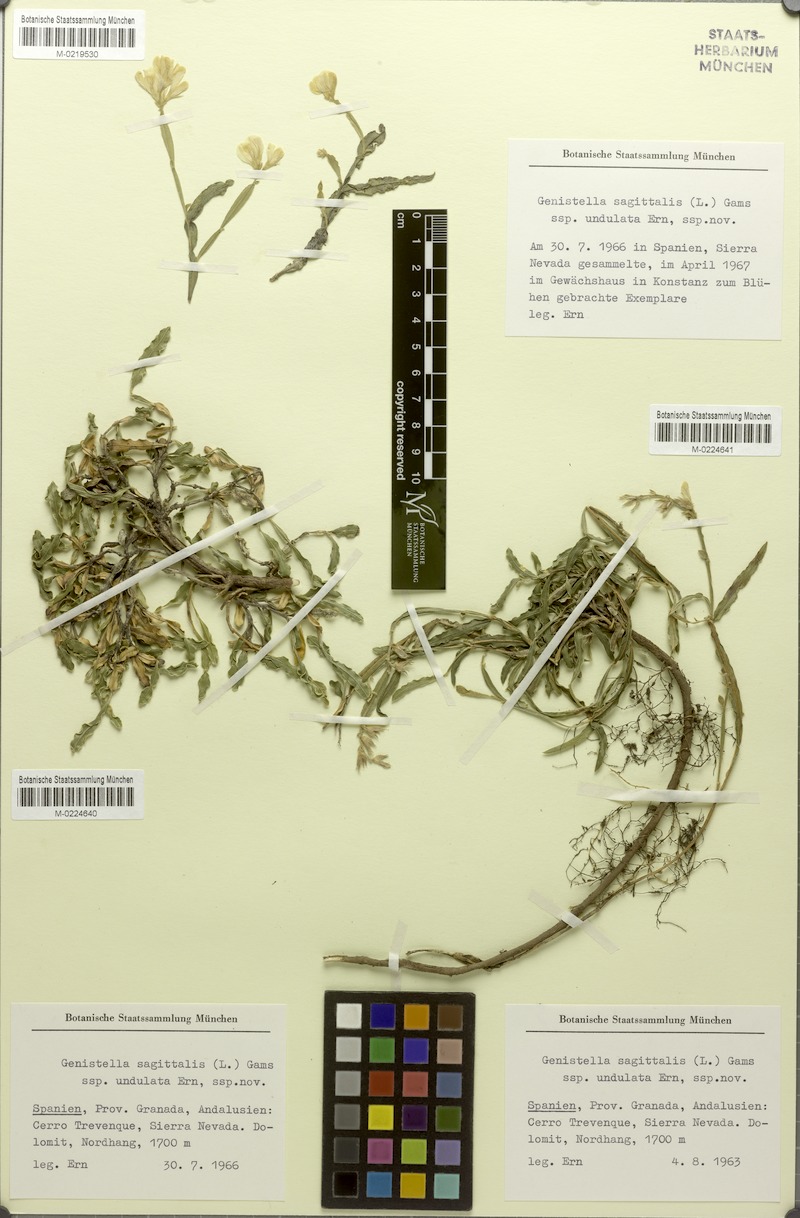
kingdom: Plantae
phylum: Tracheophyta
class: Magnoliopsida
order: Fabales
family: Fabaceae
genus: Genista
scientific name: Genista sagittalis
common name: Winged greenweed
